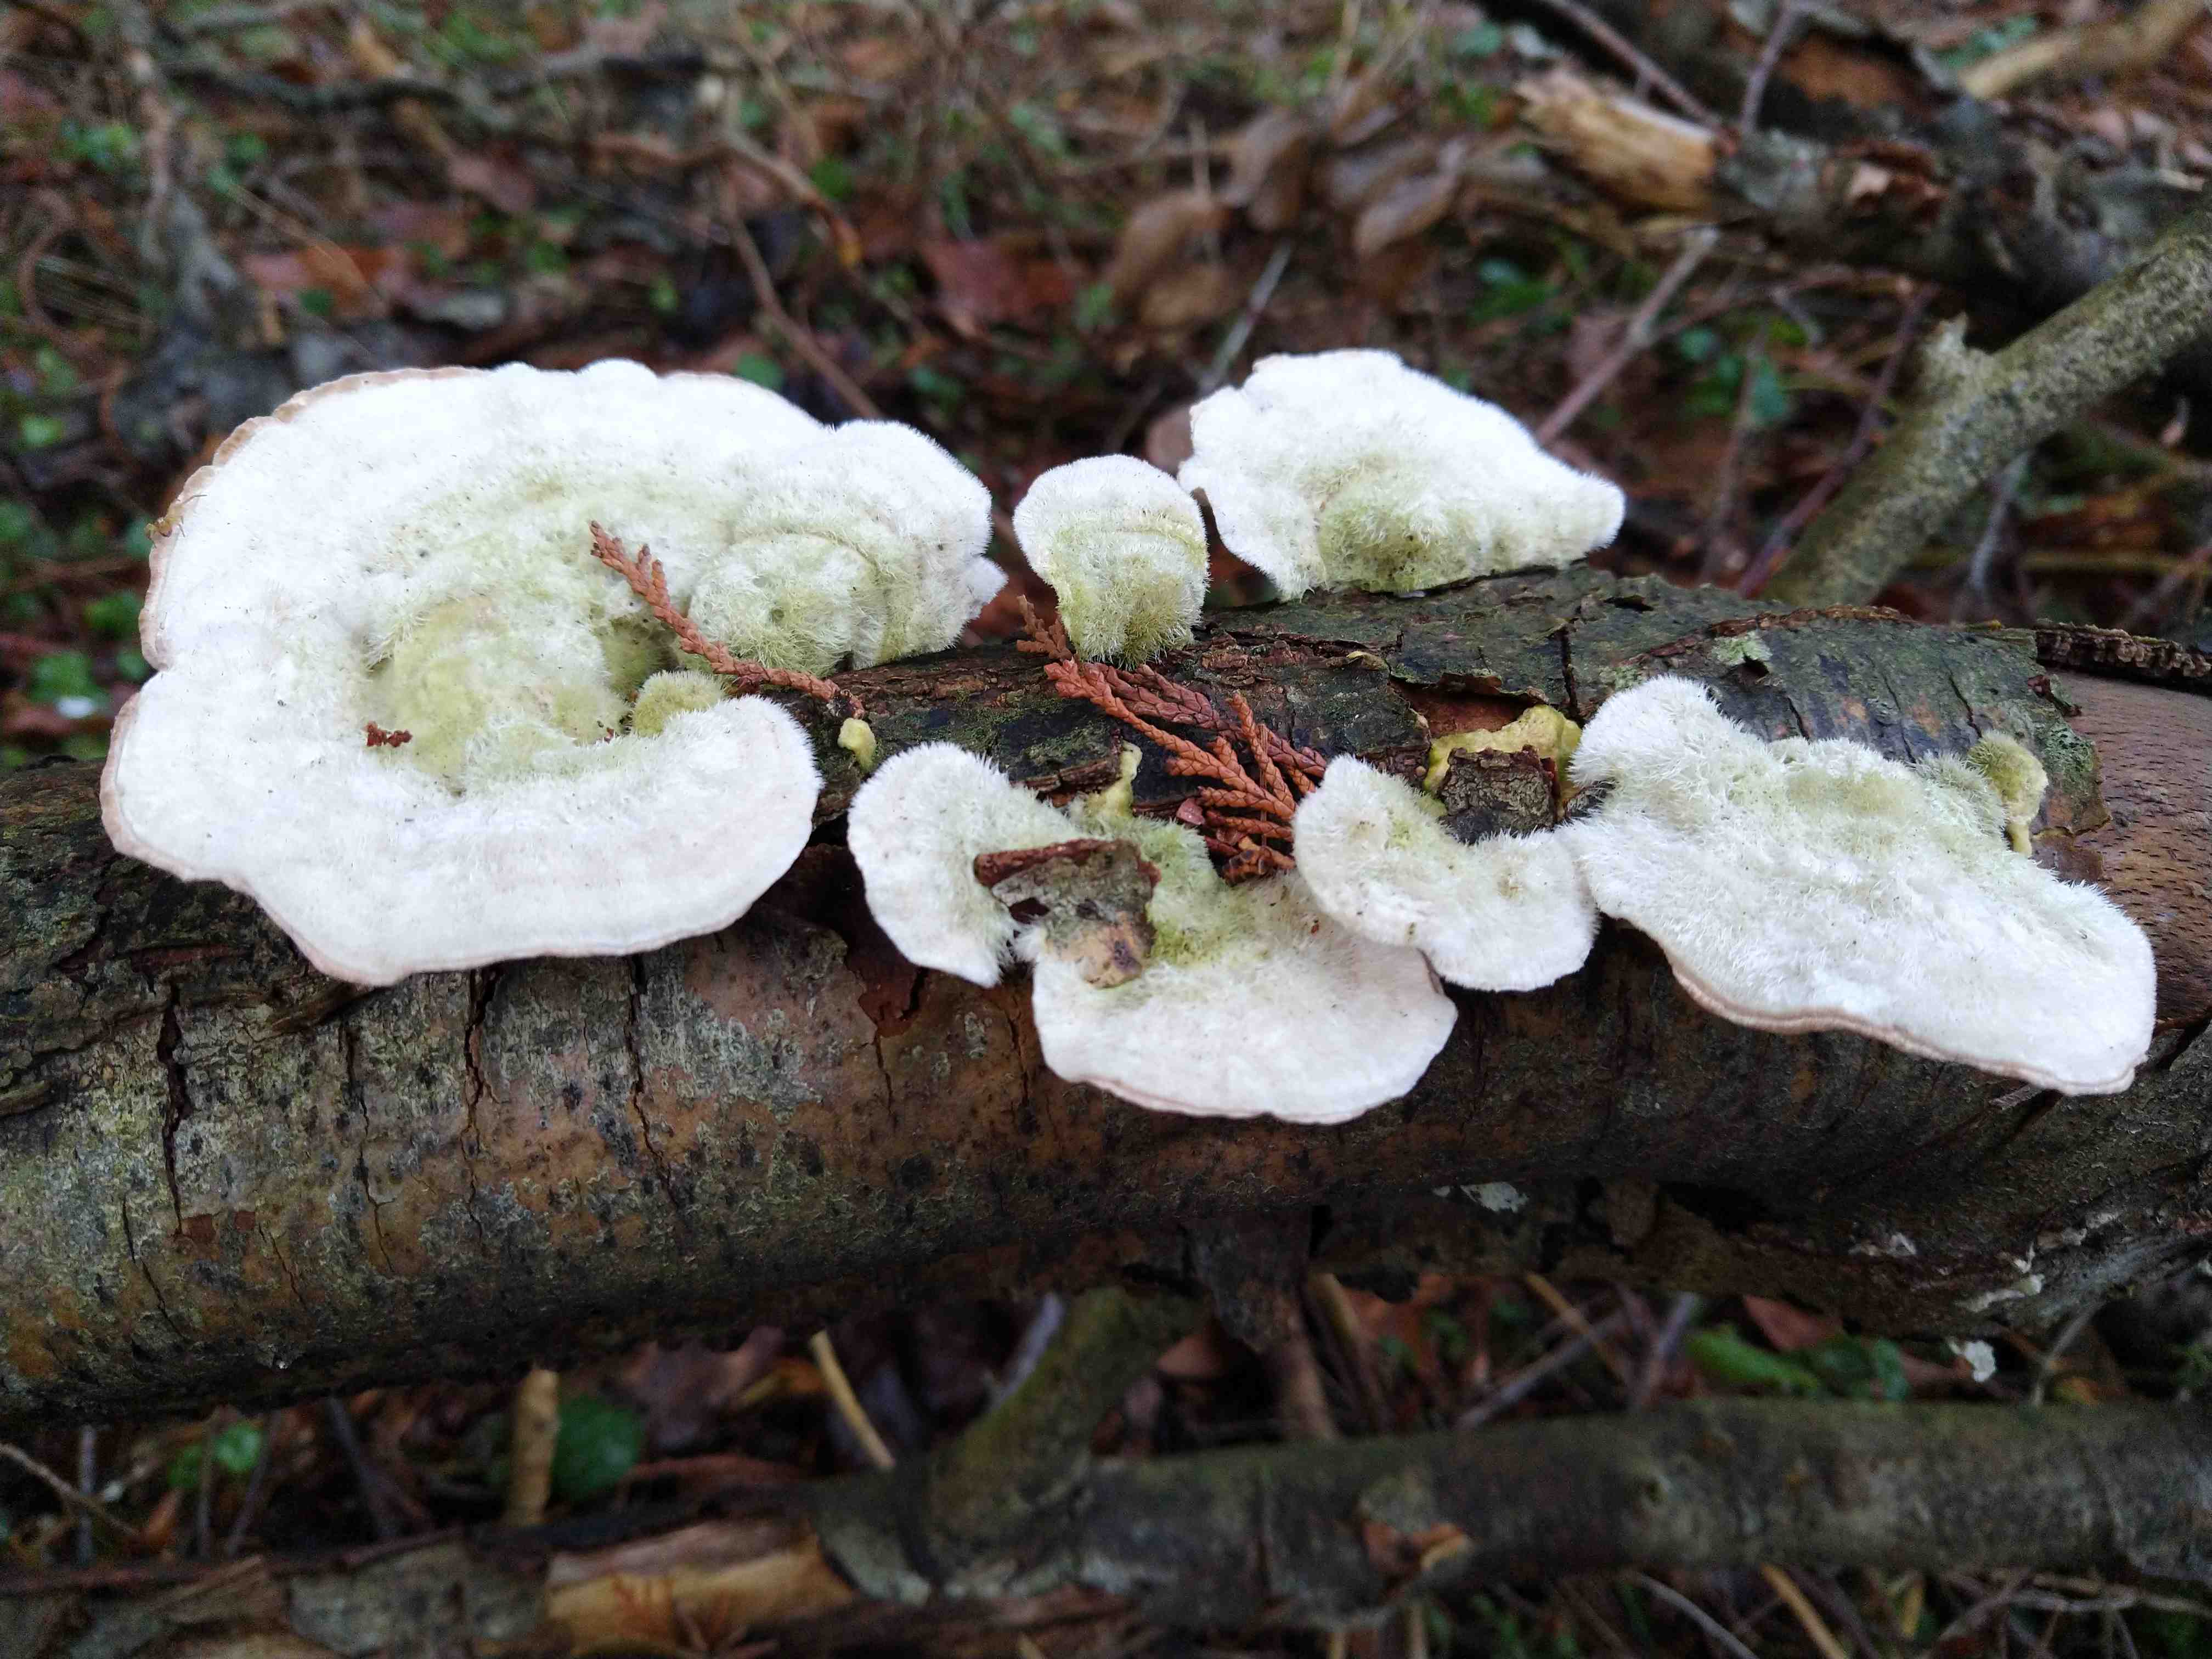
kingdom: Fungi
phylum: Basidiomycota
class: Agaricomycetes
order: Polyporales
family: Polyporaceae
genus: Trametes
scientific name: Trametes hirsuta
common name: håret læderporesvamp
